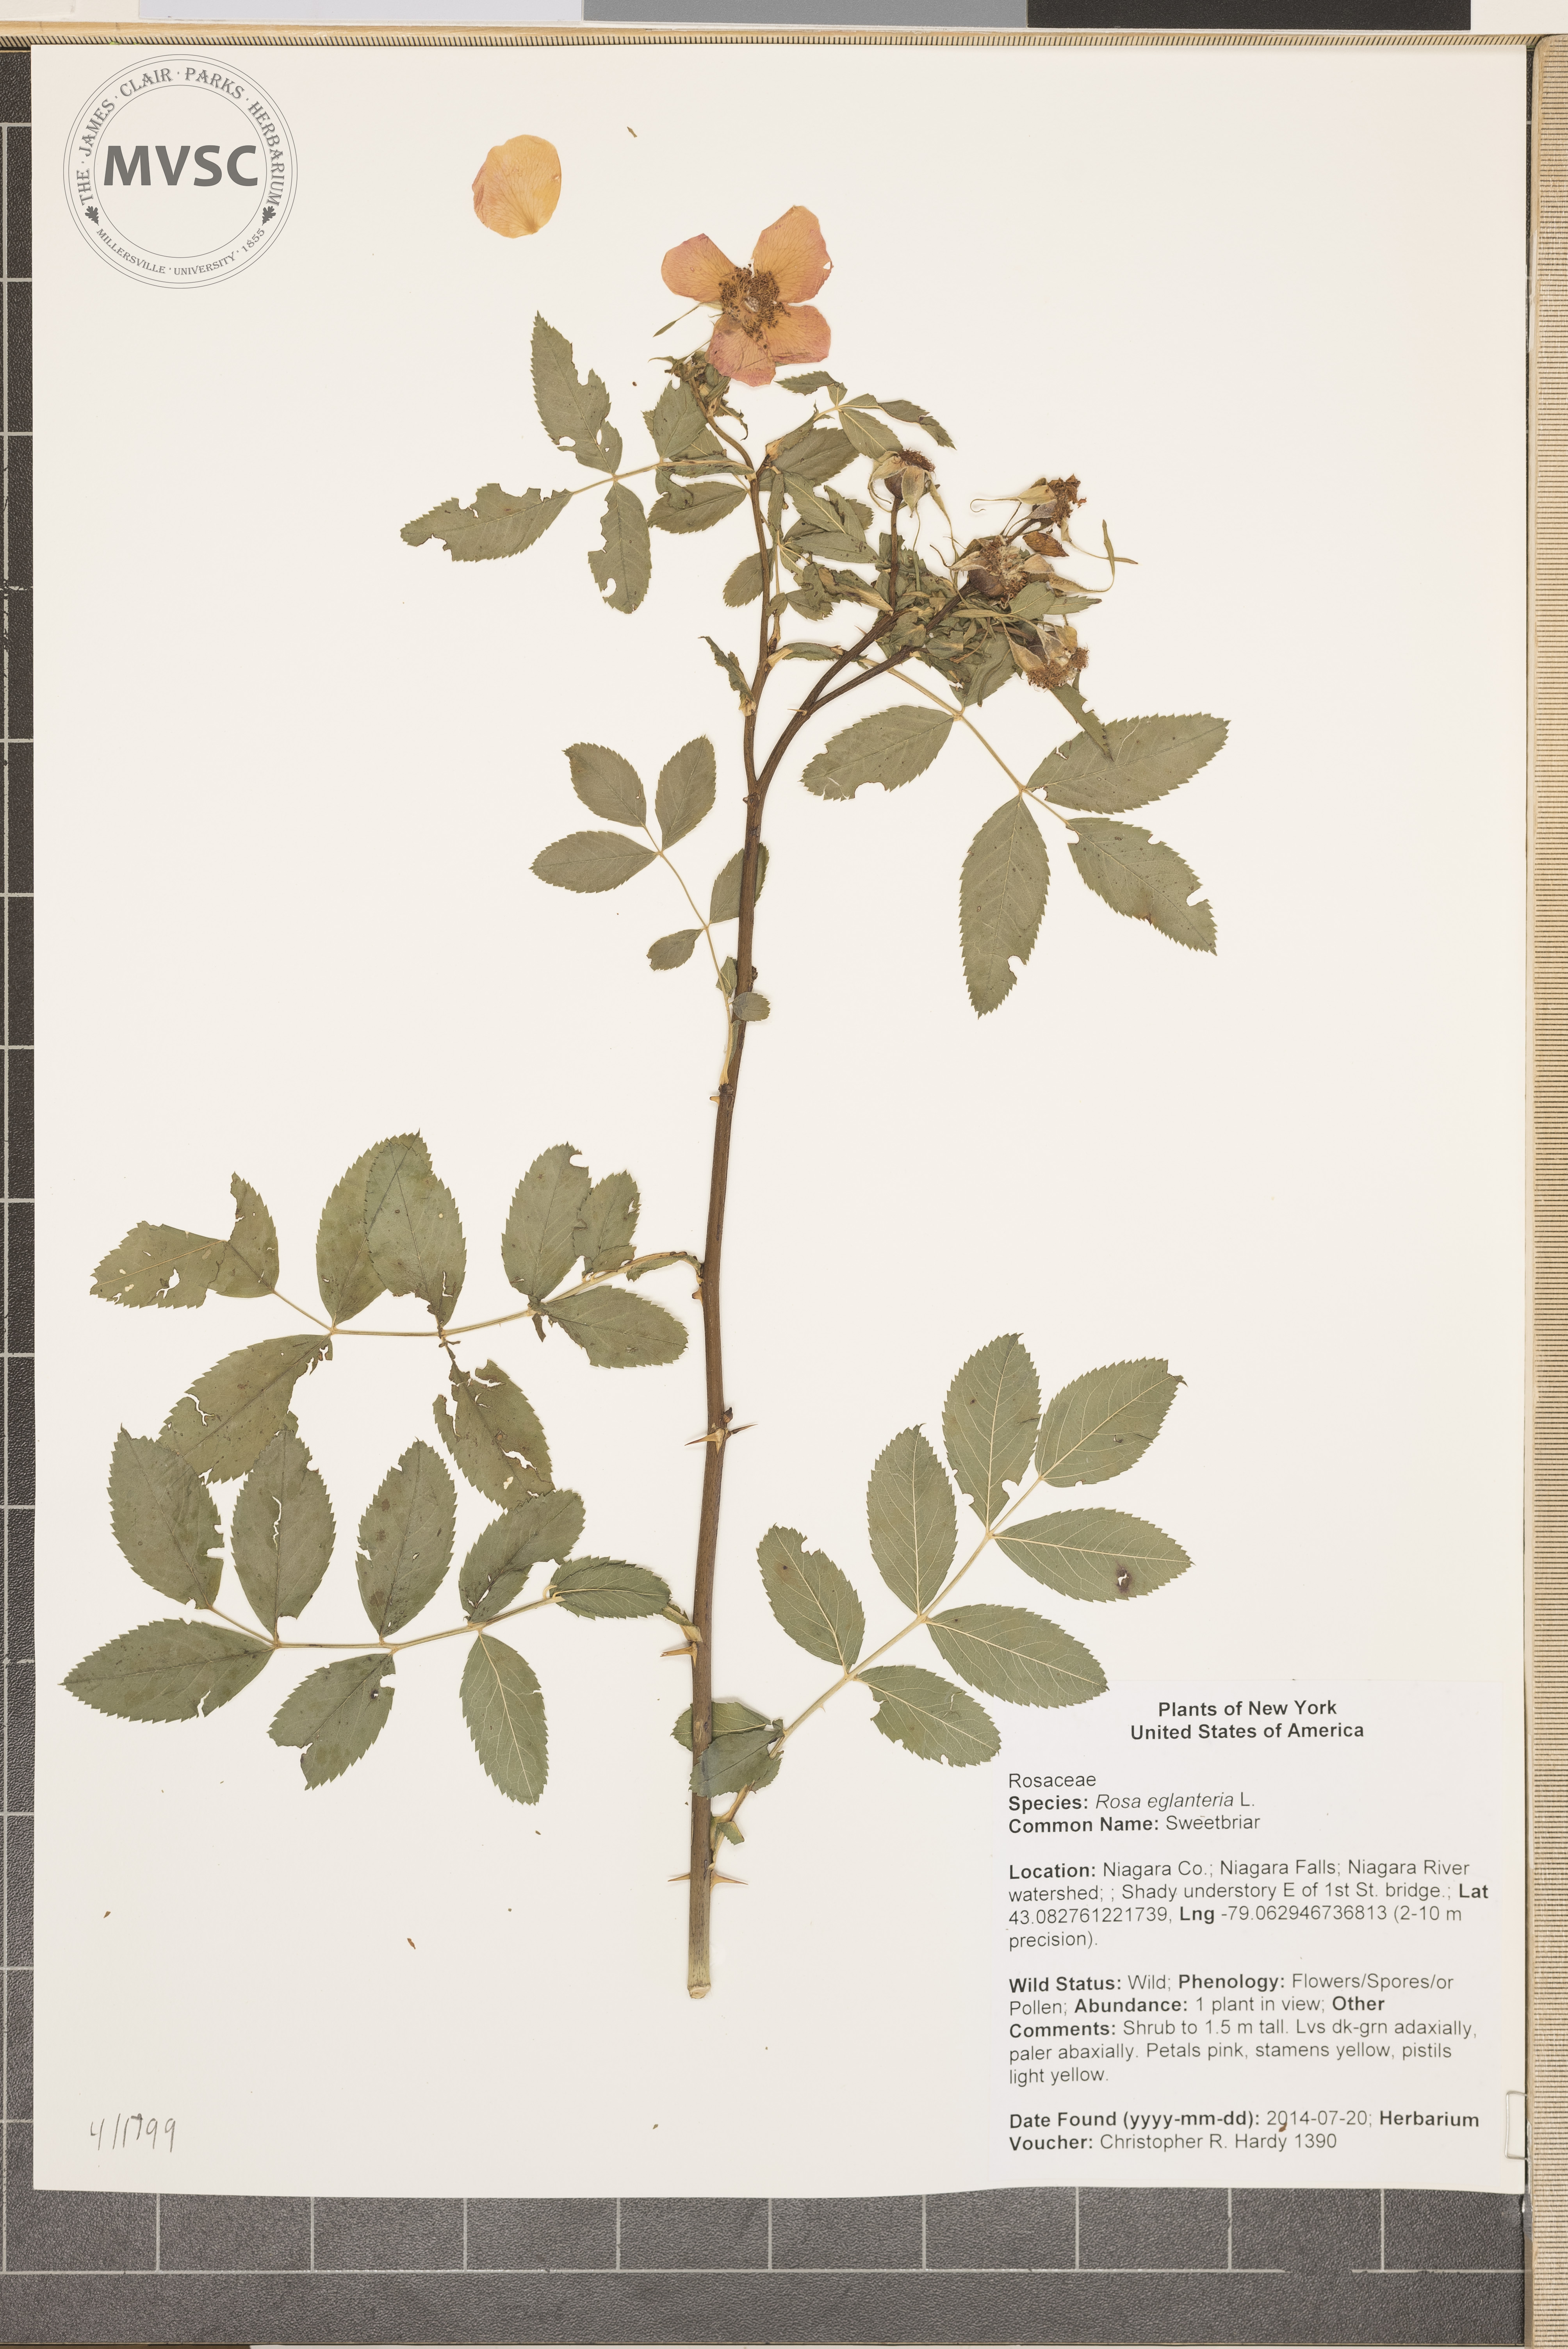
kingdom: Plantae
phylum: Tracheophyta
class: Magnoliopsida
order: Rosales
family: Rosaceae
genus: Rosa
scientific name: Rosa rubiginosa
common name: Sweetbriar
